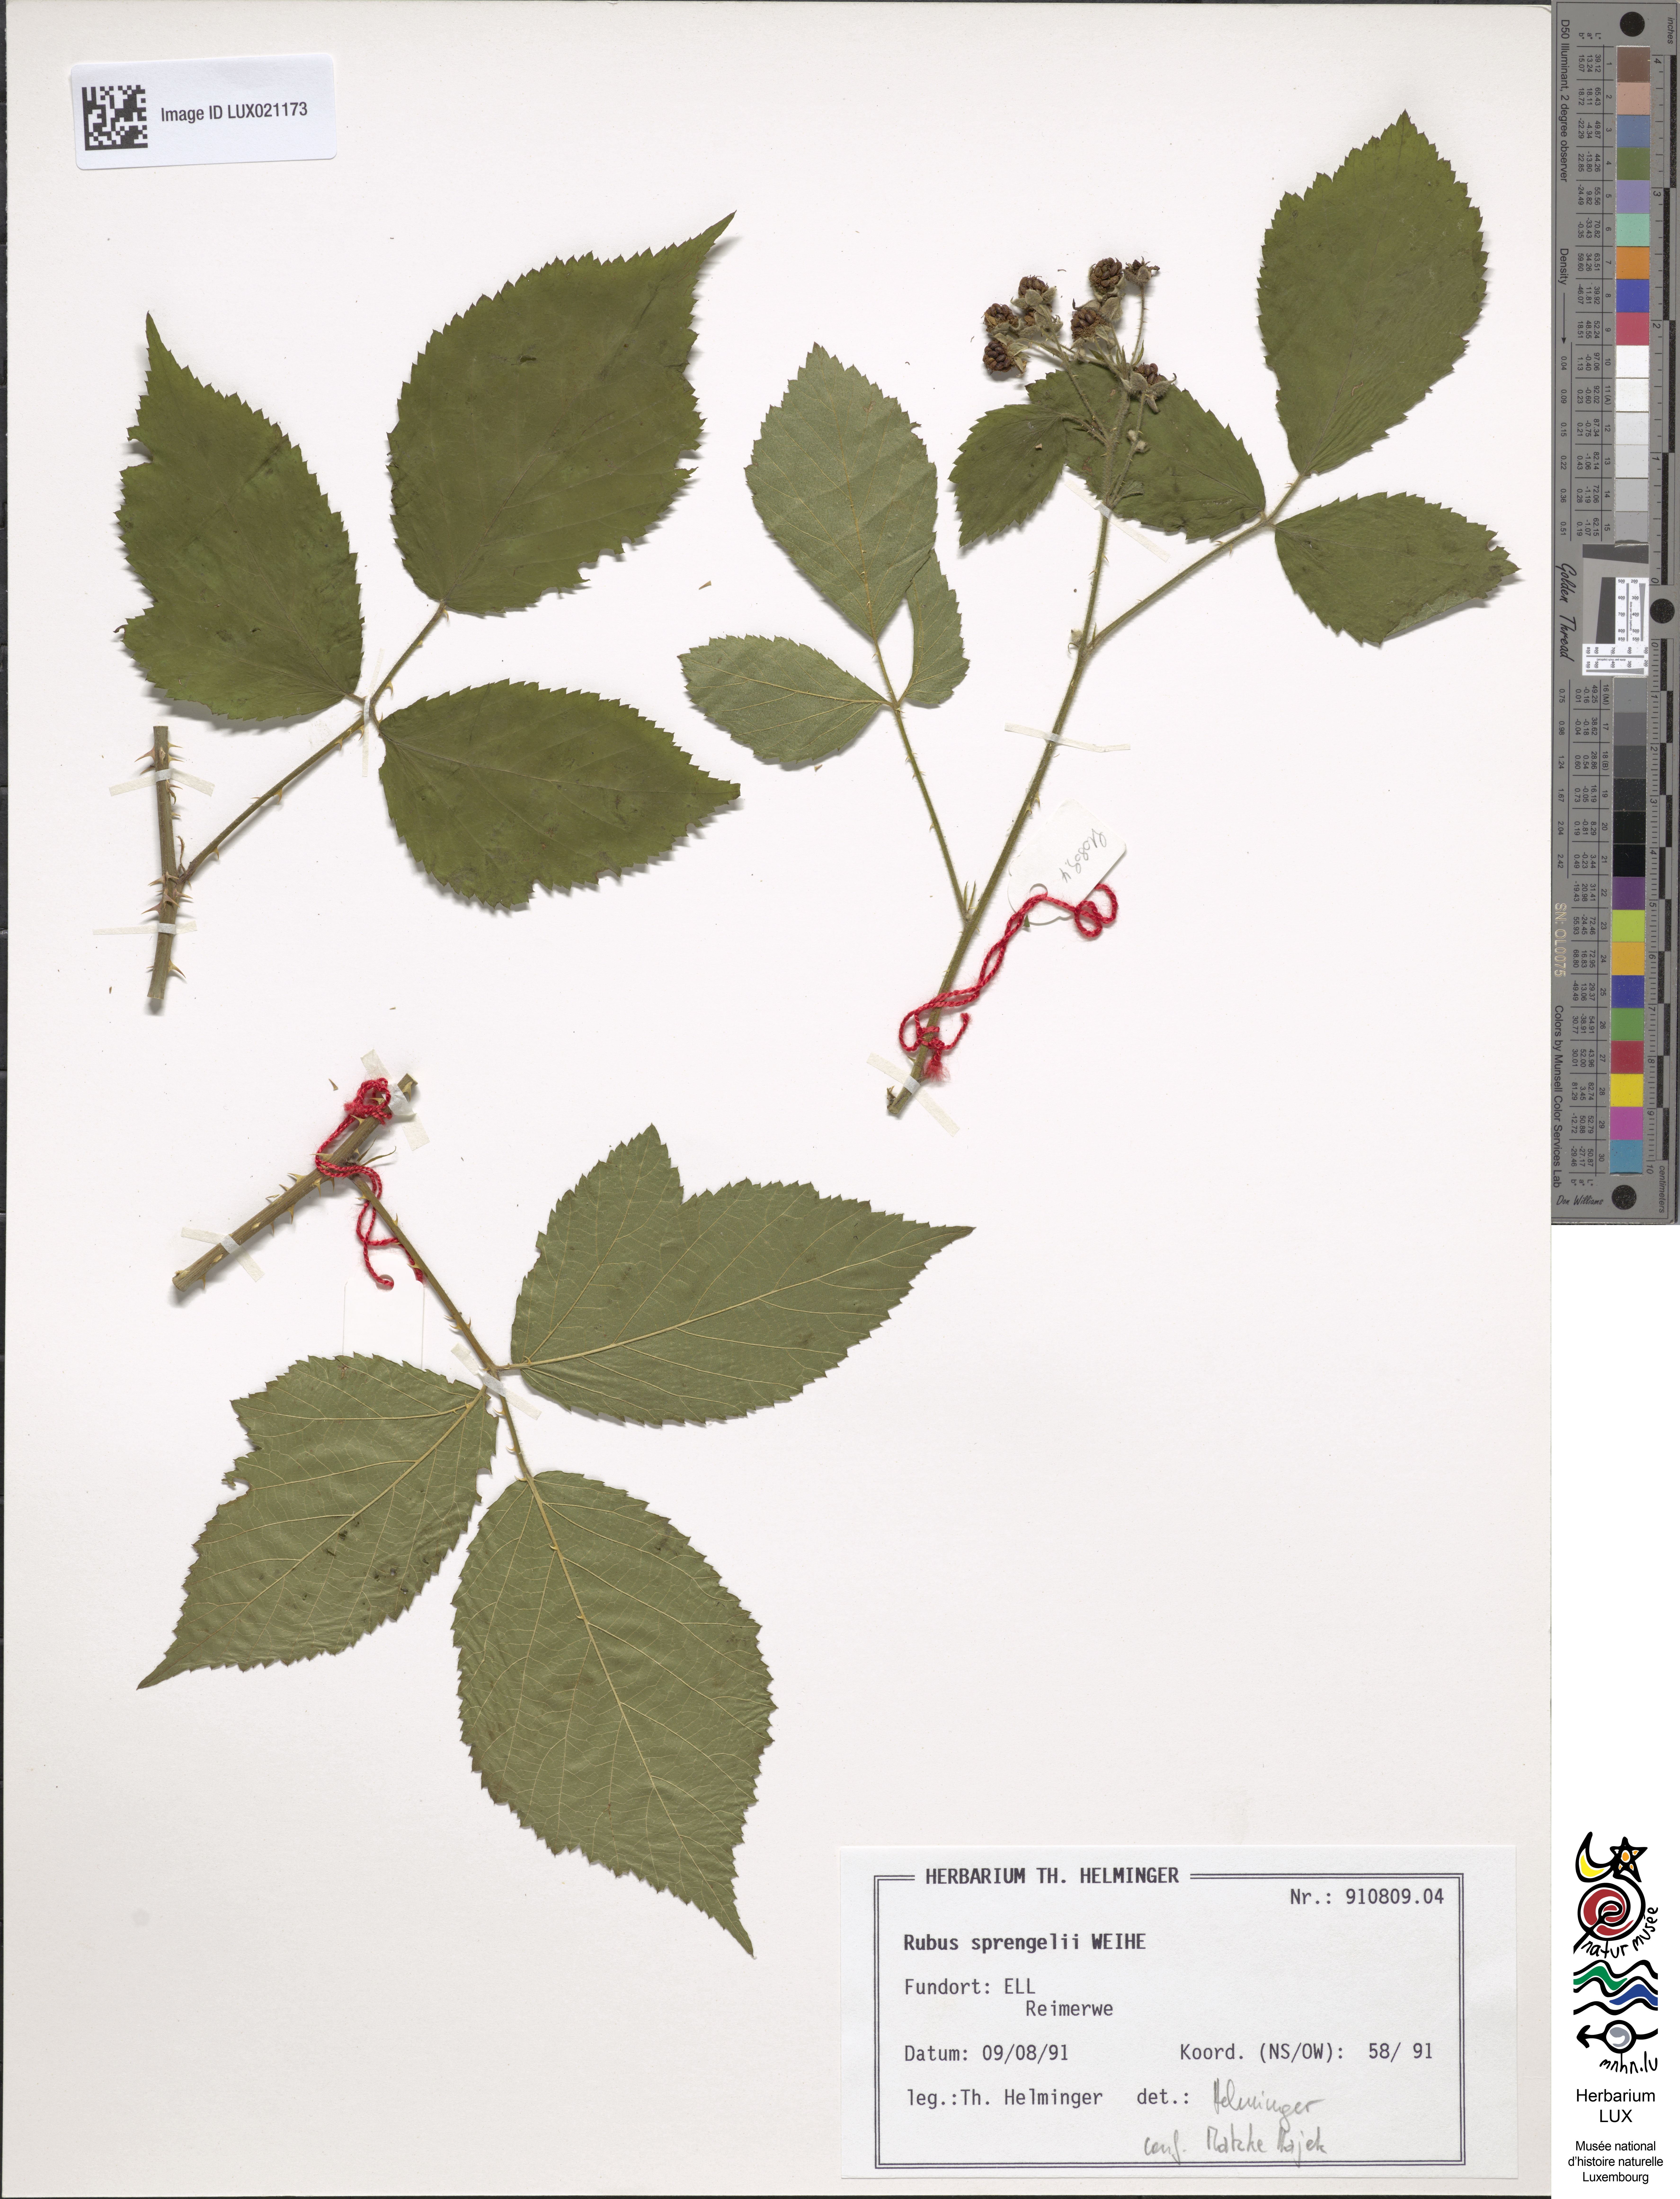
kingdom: Plantae
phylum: Tracheophyta
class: Magnoliopsida
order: Rosales
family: Rosaceae
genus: Rubus
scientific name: Rubus sprengelii
